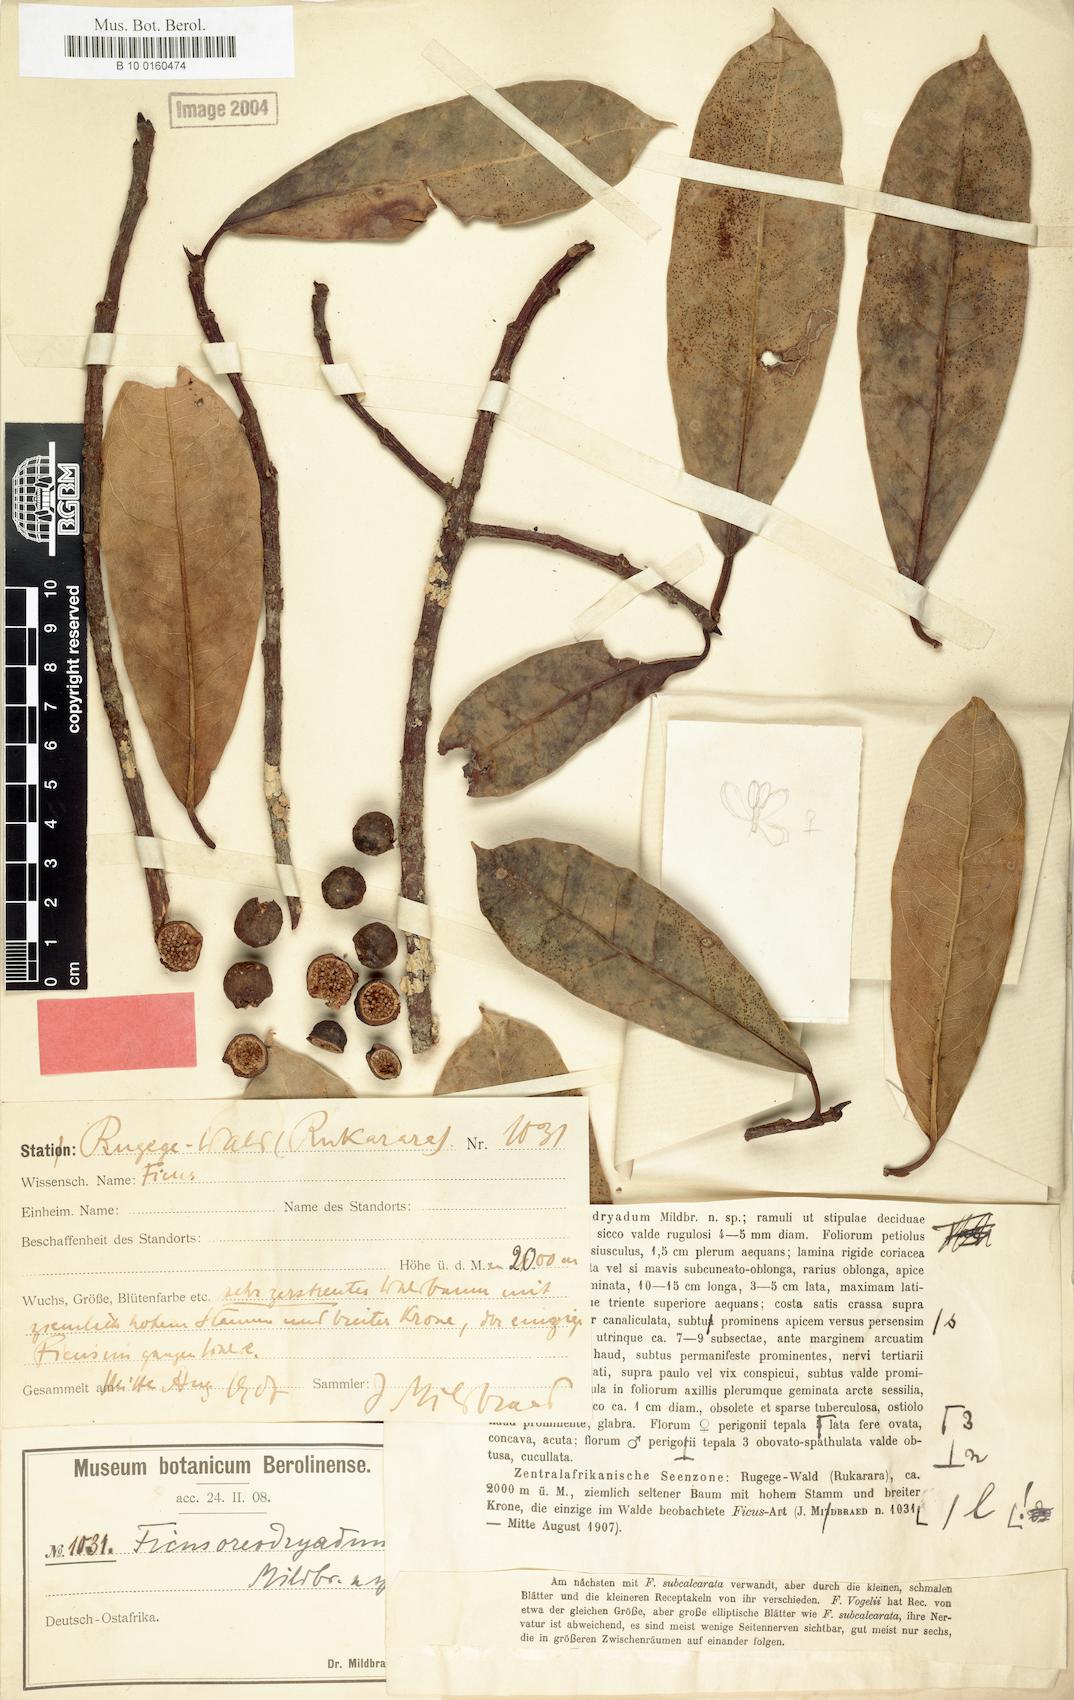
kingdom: Plantae
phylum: Tracheophyta
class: Magnoliopsida
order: Rosales
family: Moraceae
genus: Ficus
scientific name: Ficus oreodryadum
